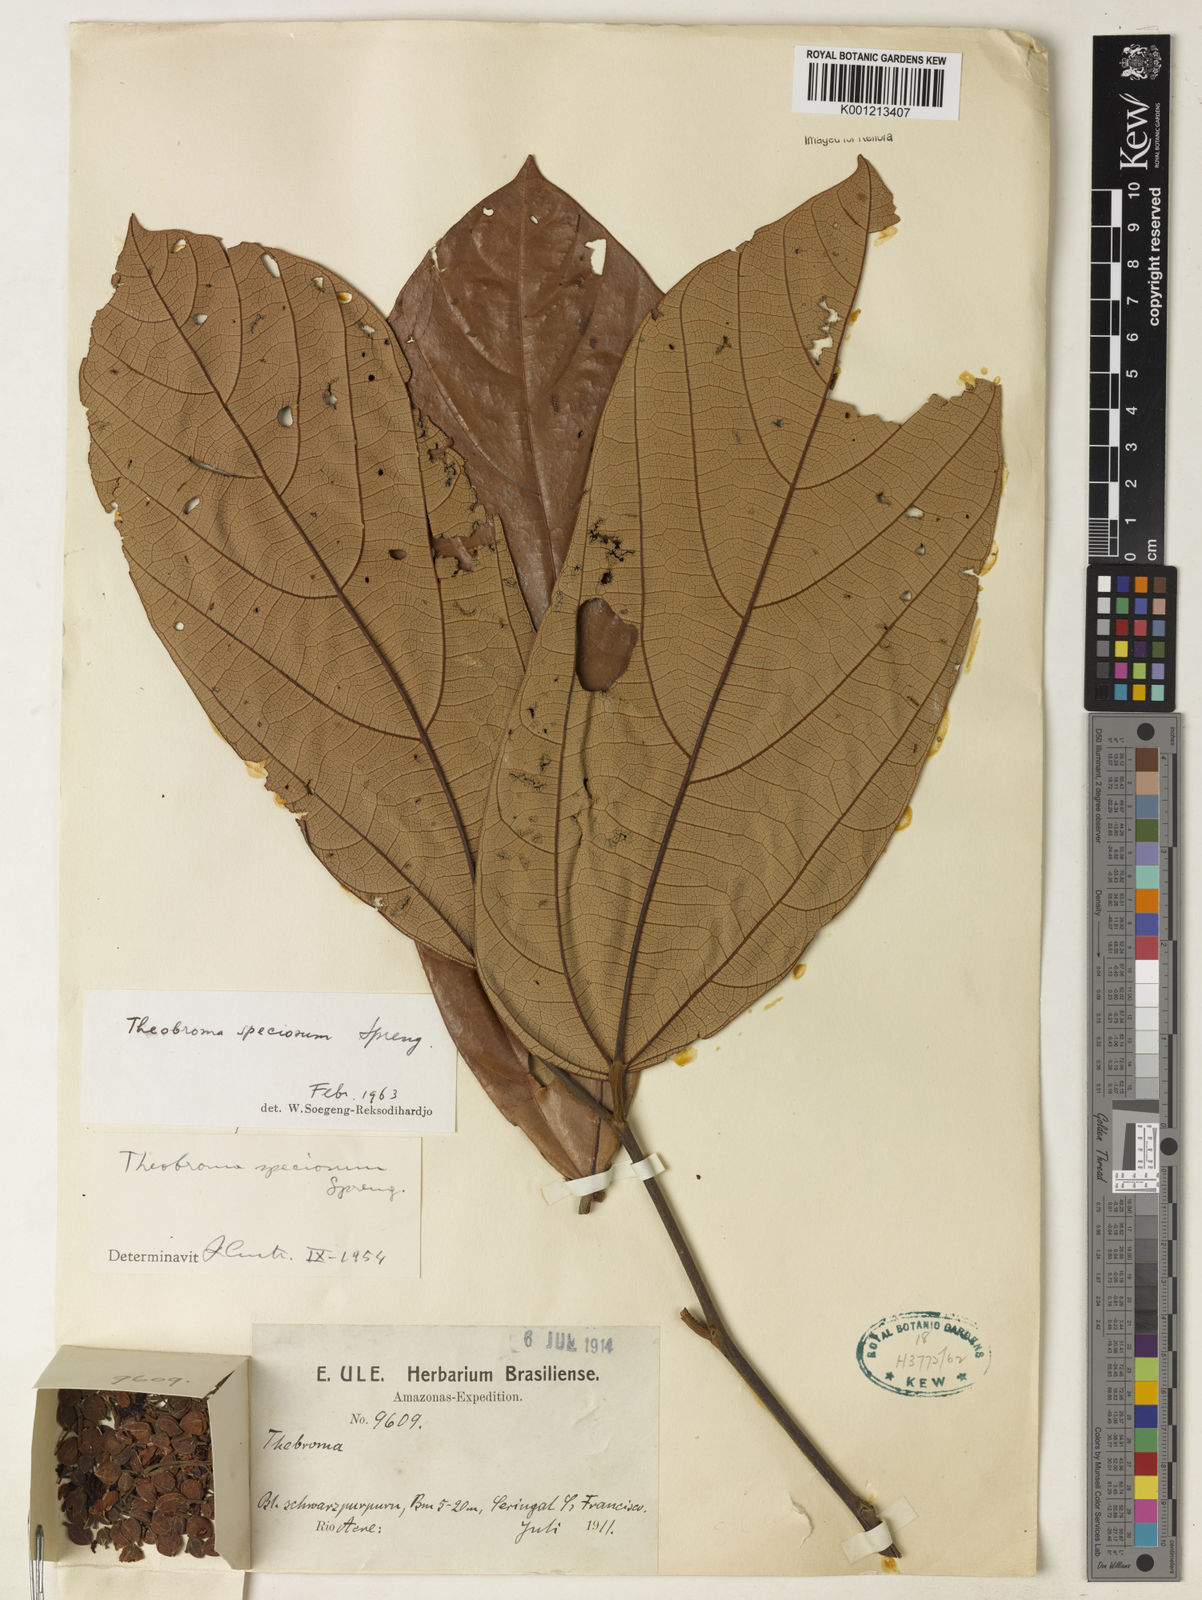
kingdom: Plantae
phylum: Tracheophyta
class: Magnoliopsida
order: Malvales
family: Malvaceae
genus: Theobroma
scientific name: Theobroma speciosum
